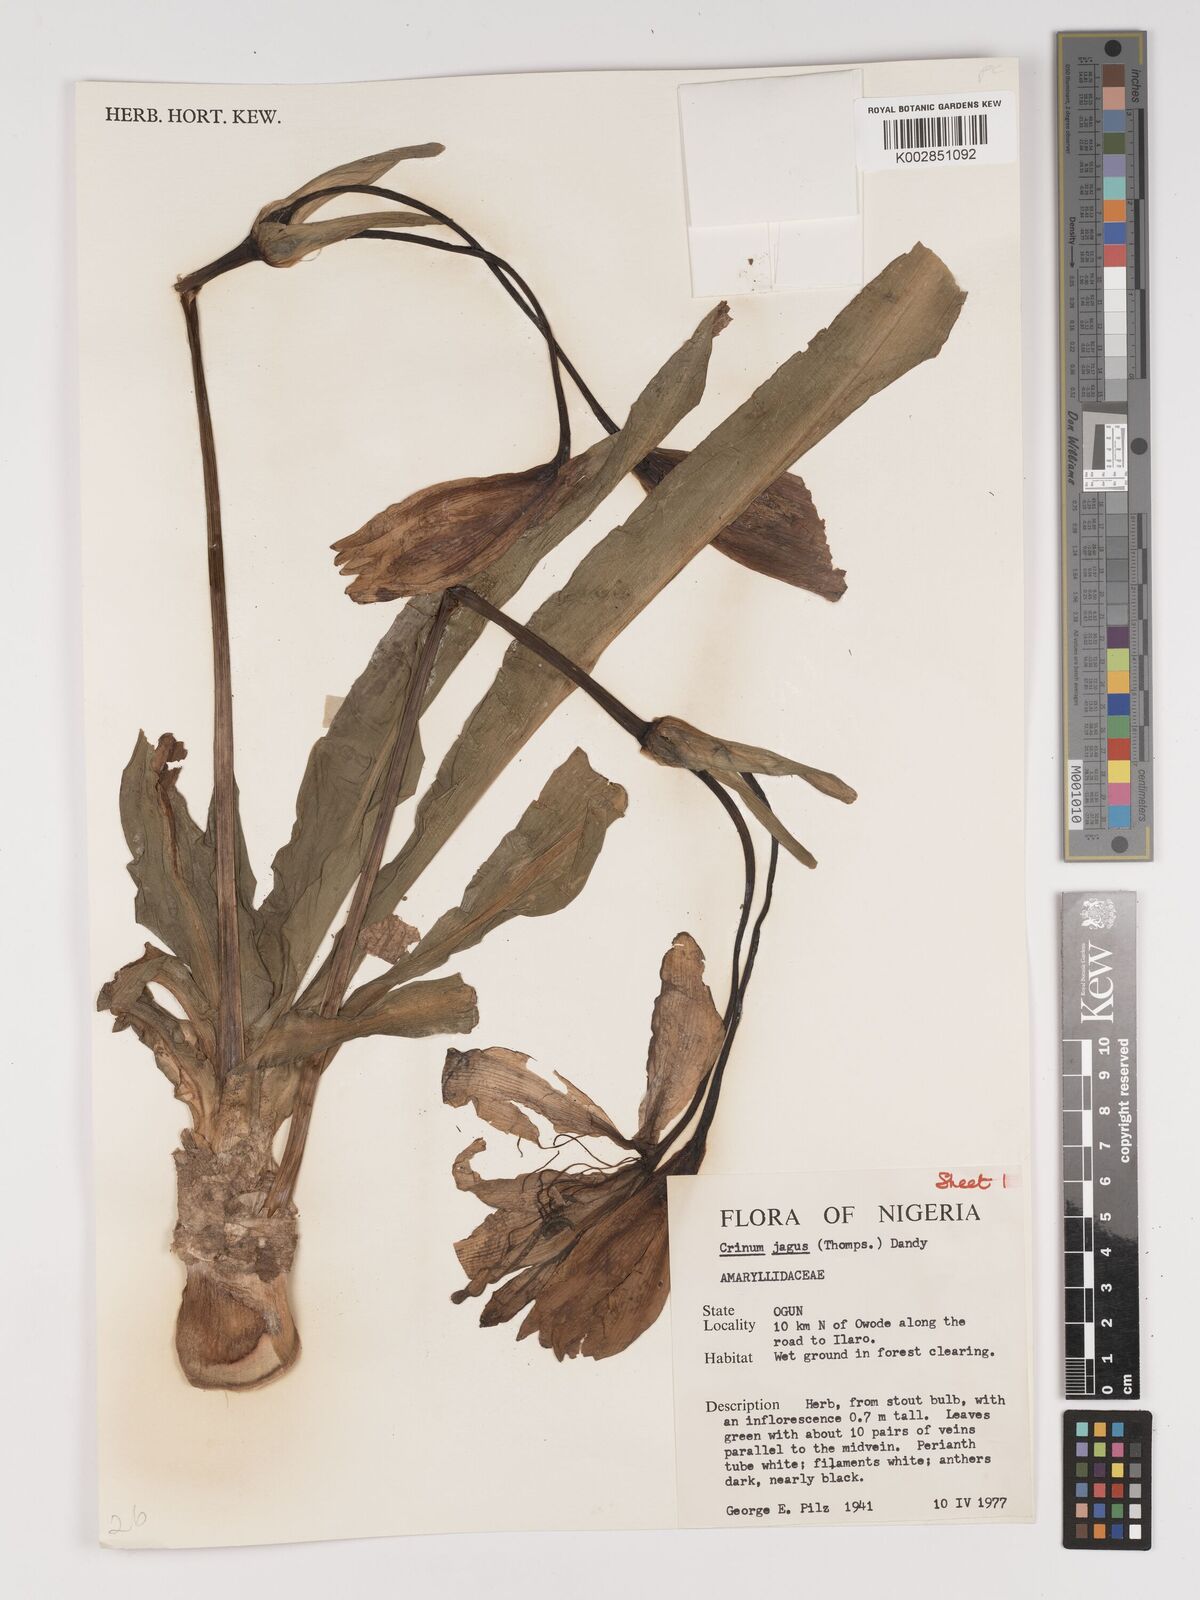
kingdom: Plantae
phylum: Tracheophyta
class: Liliopsida
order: Asparagales
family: Amaryllidaceae
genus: Crinum
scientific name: Crinum jagus
